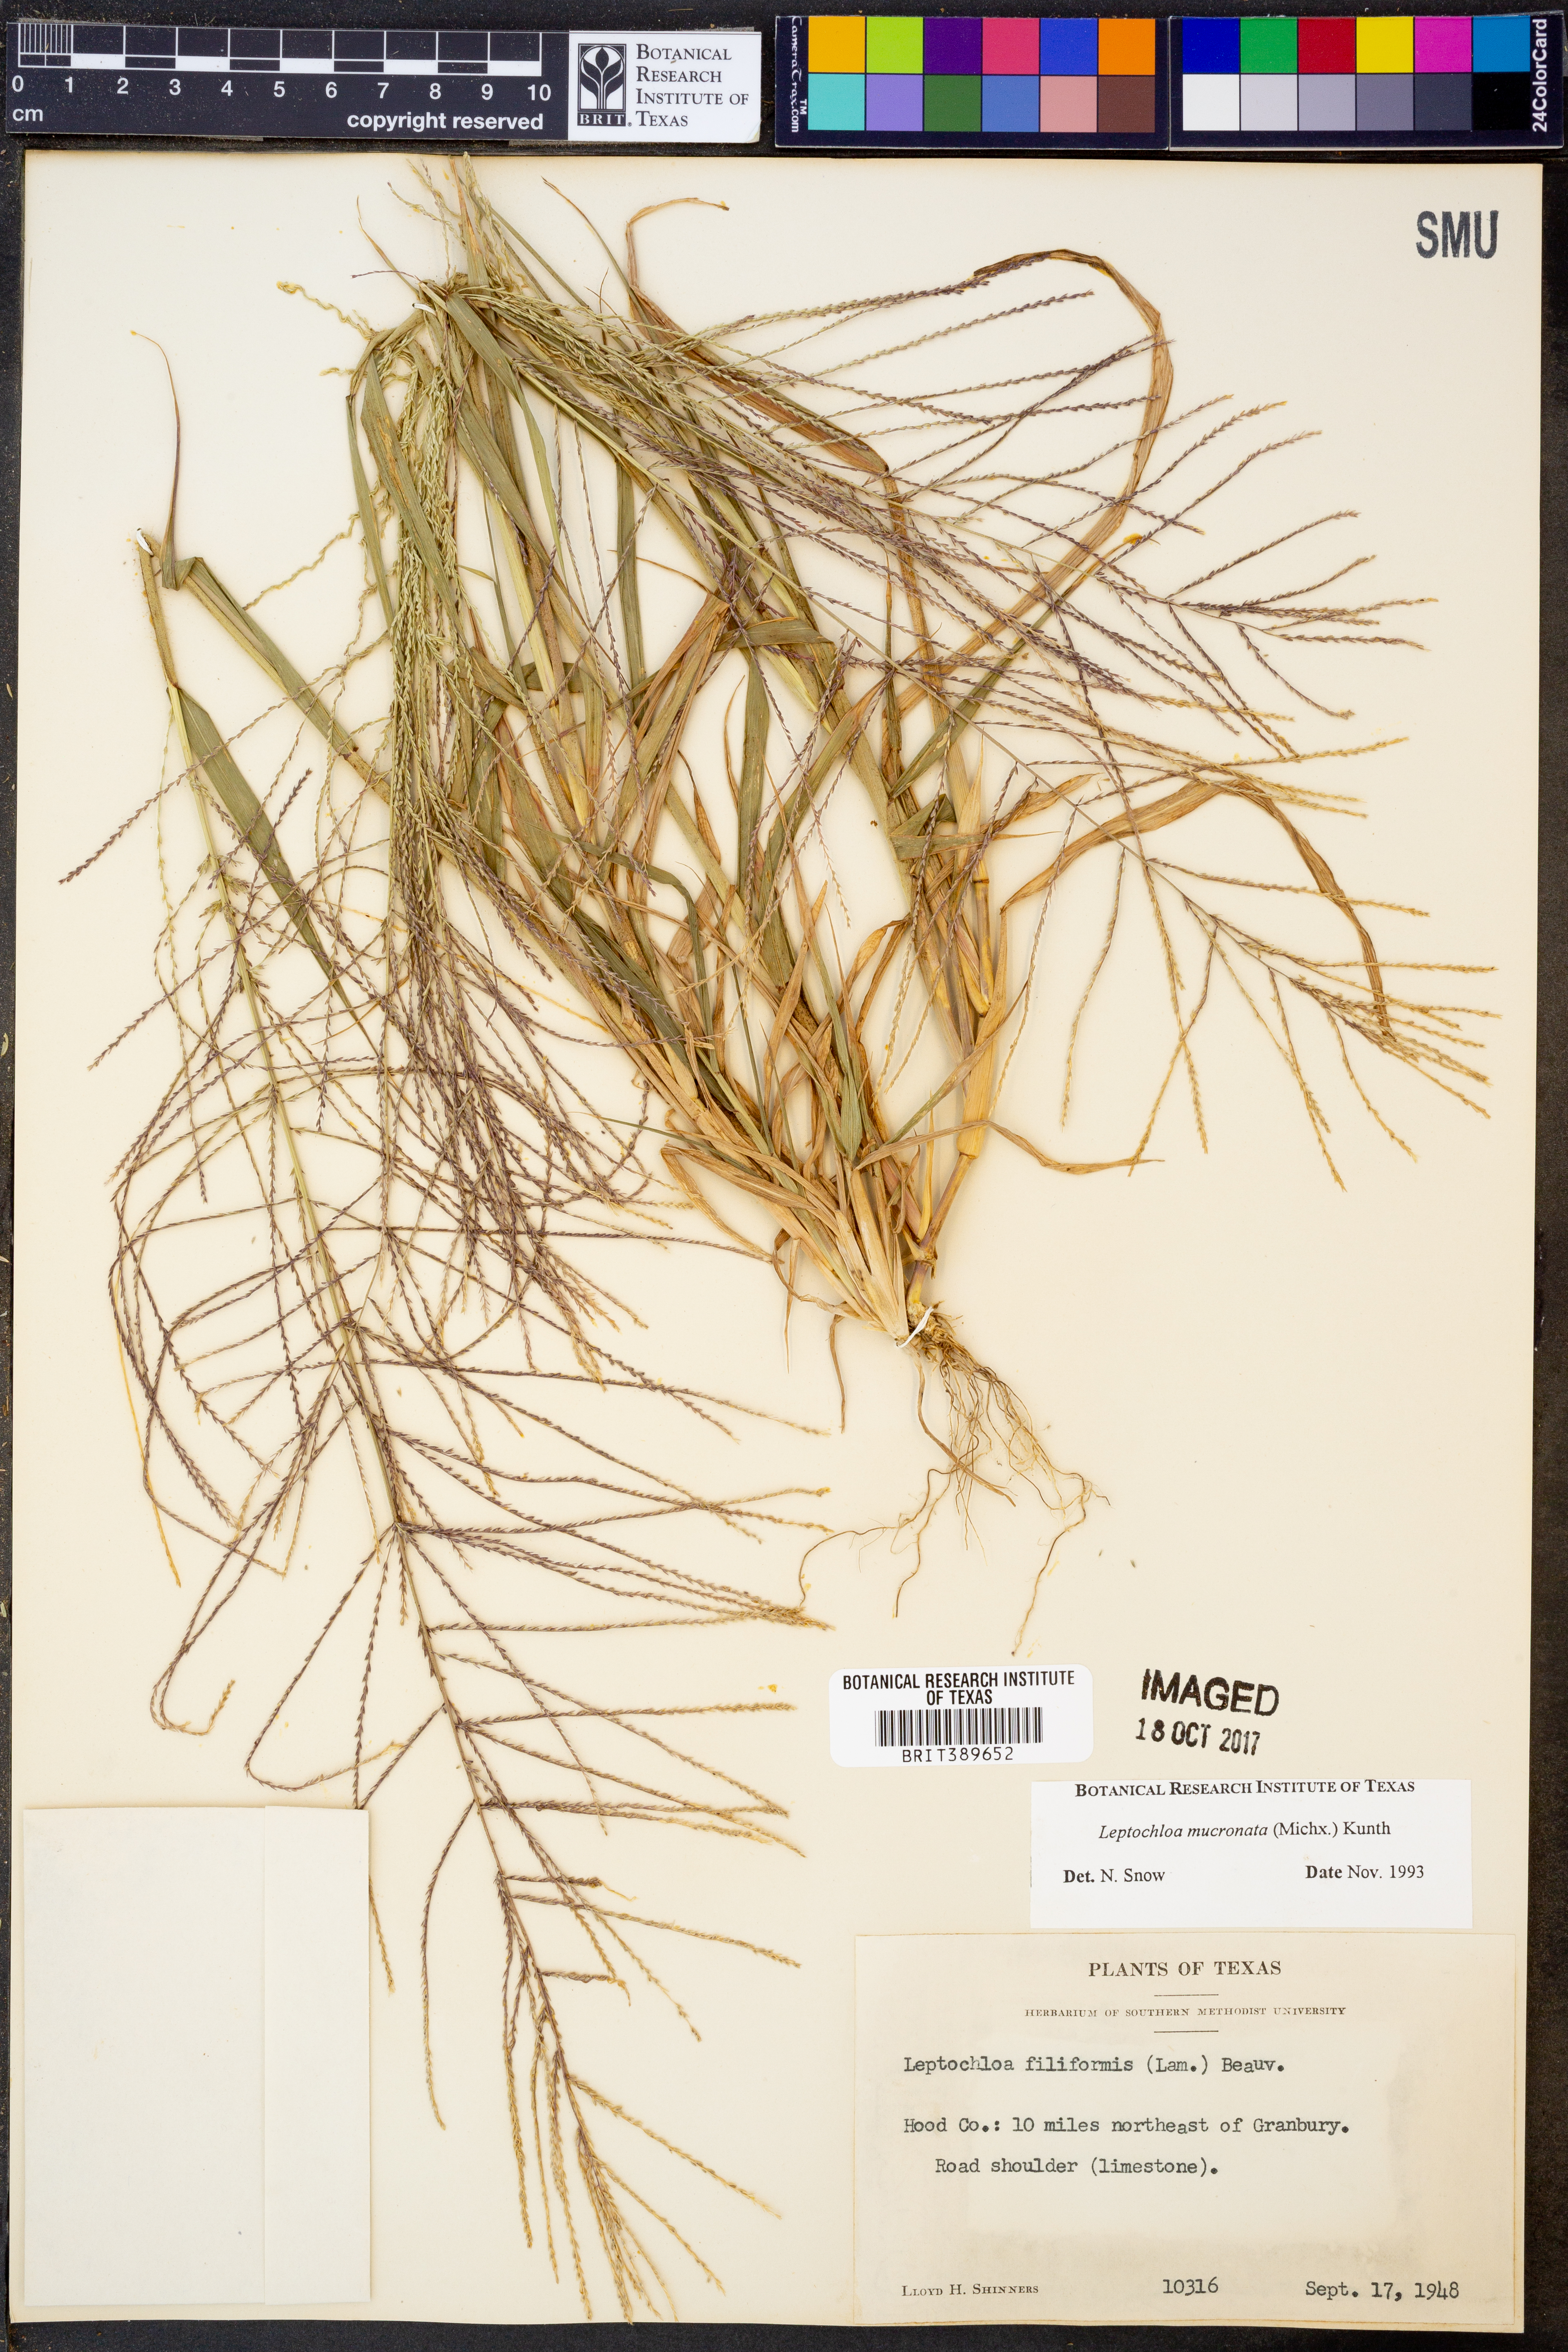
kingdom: Plantae
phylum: Tracheophyta
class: Liliopsida
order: Poales
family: Poaceae
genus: Leptochloa
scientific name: Leptochloa mucronata
